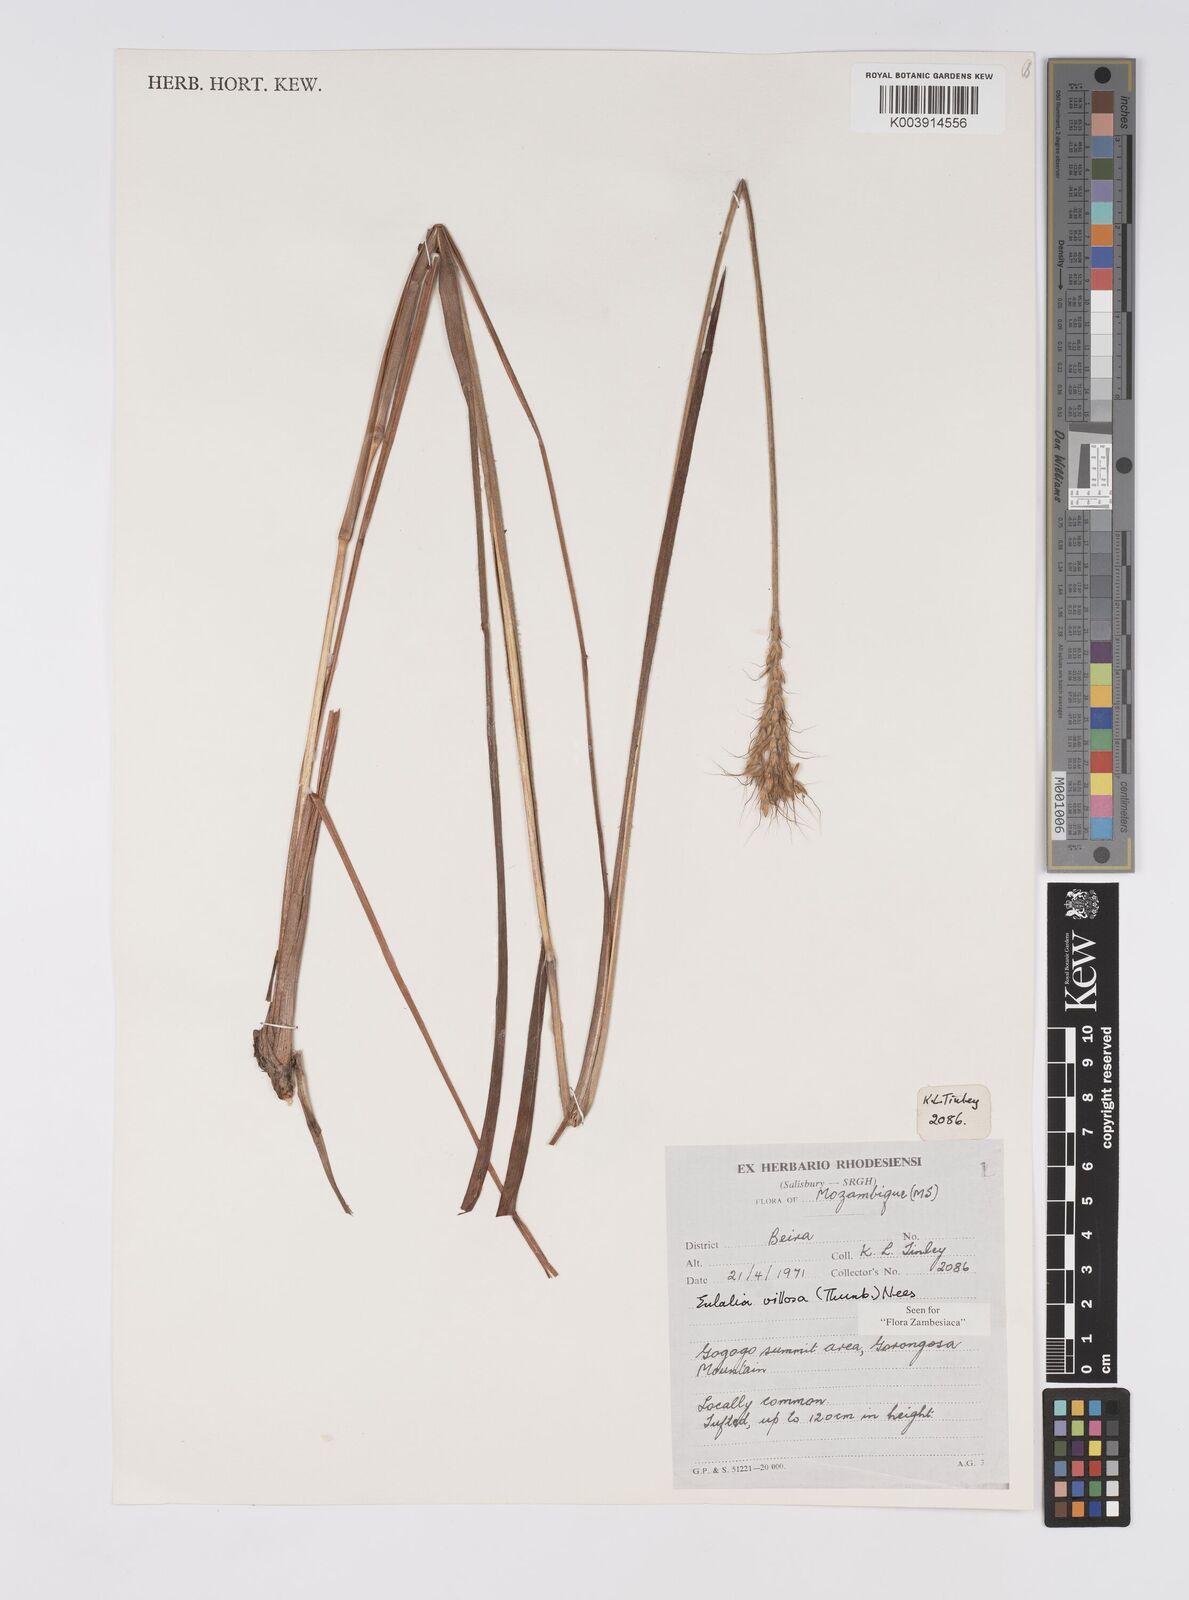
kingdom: Plantae
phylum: Tracheophyta
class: Liliopsida
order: Poales
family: Poaceae
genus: Eulalia
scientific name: Eulalia villosa
